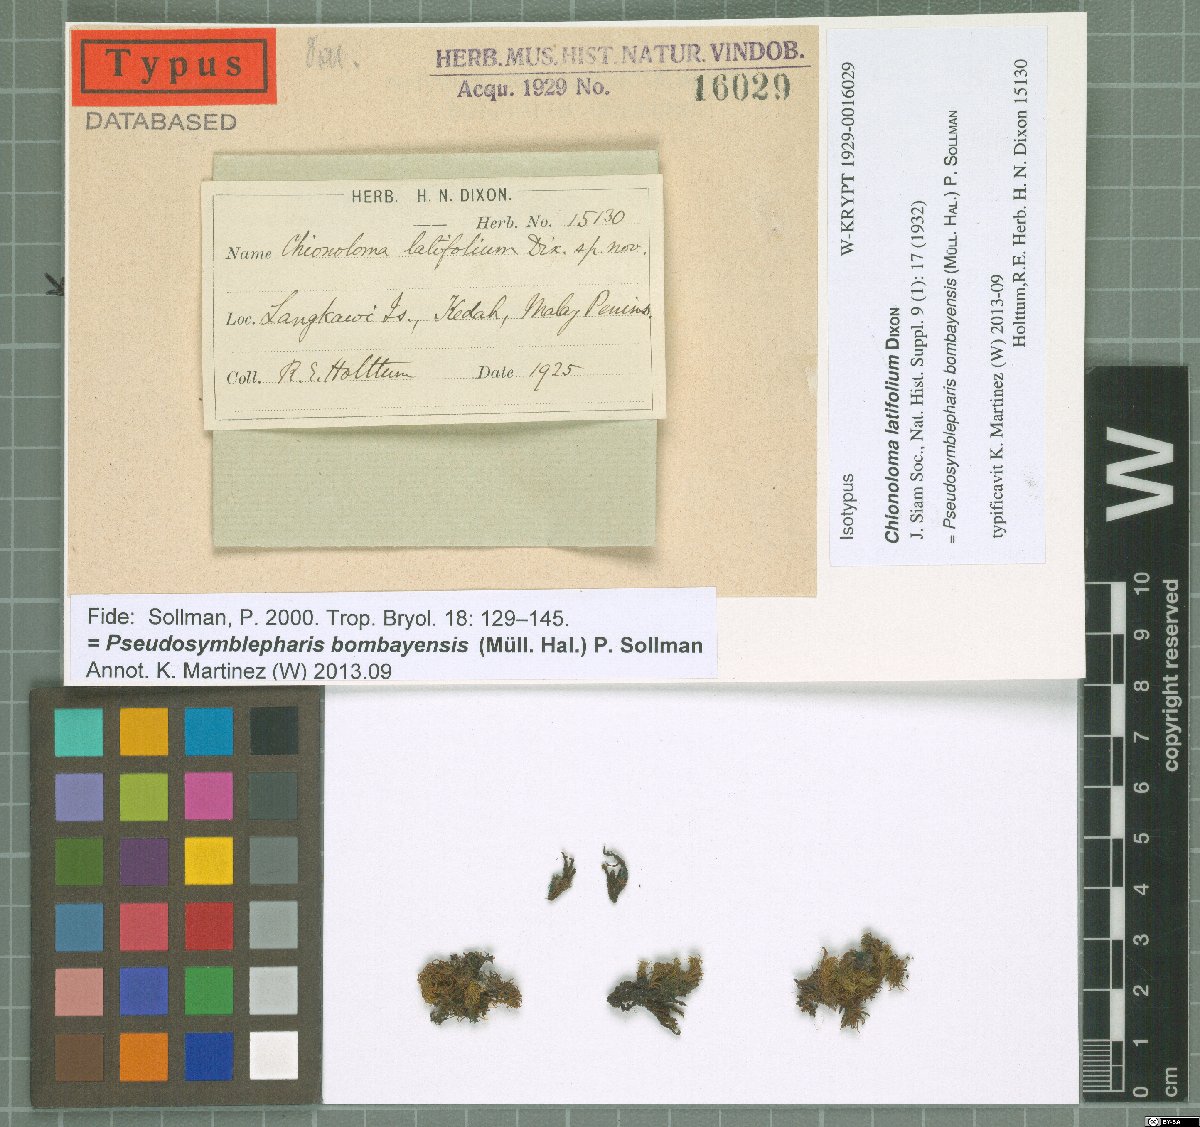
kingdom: Plantae
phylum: Bryophyta
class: Bryopsida
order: Pottiales
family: Pottiaceae
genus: Chionoloma
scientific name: Chionoloma induratum
